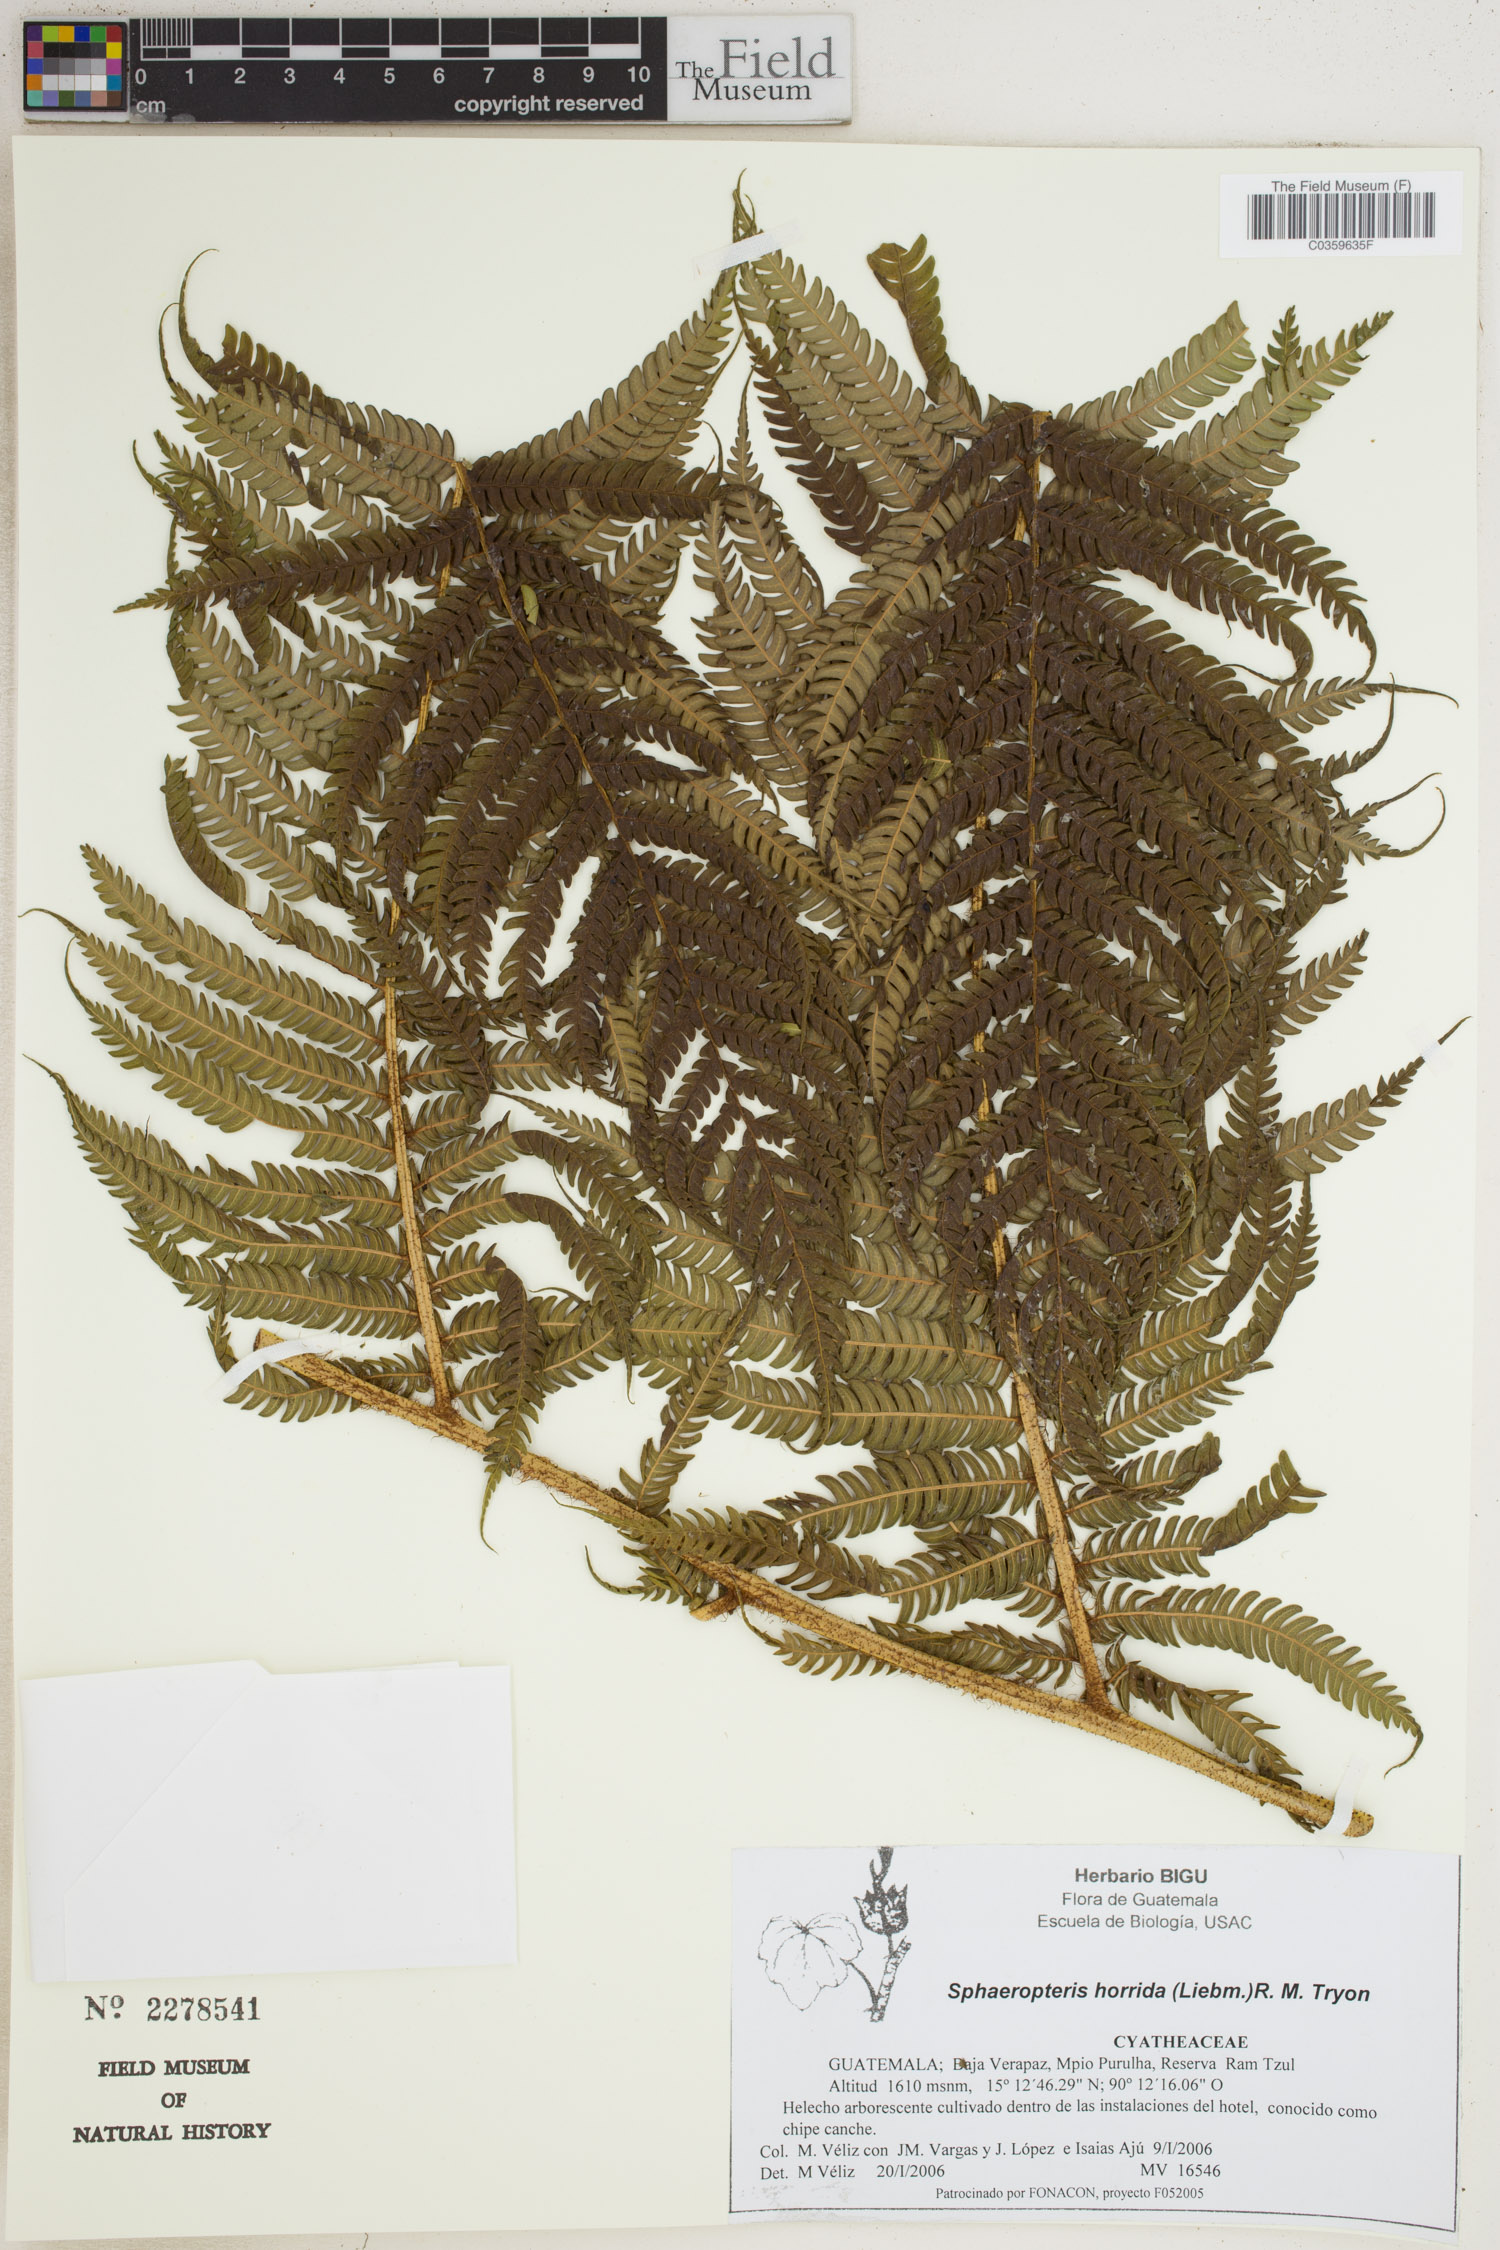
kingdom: Plantae
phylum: Tracheophyta
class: Polypodiopsida
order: Cyatheales
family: Cyatheaceae
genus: Sphaeropteris
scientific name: Sphaeropteris horrida
